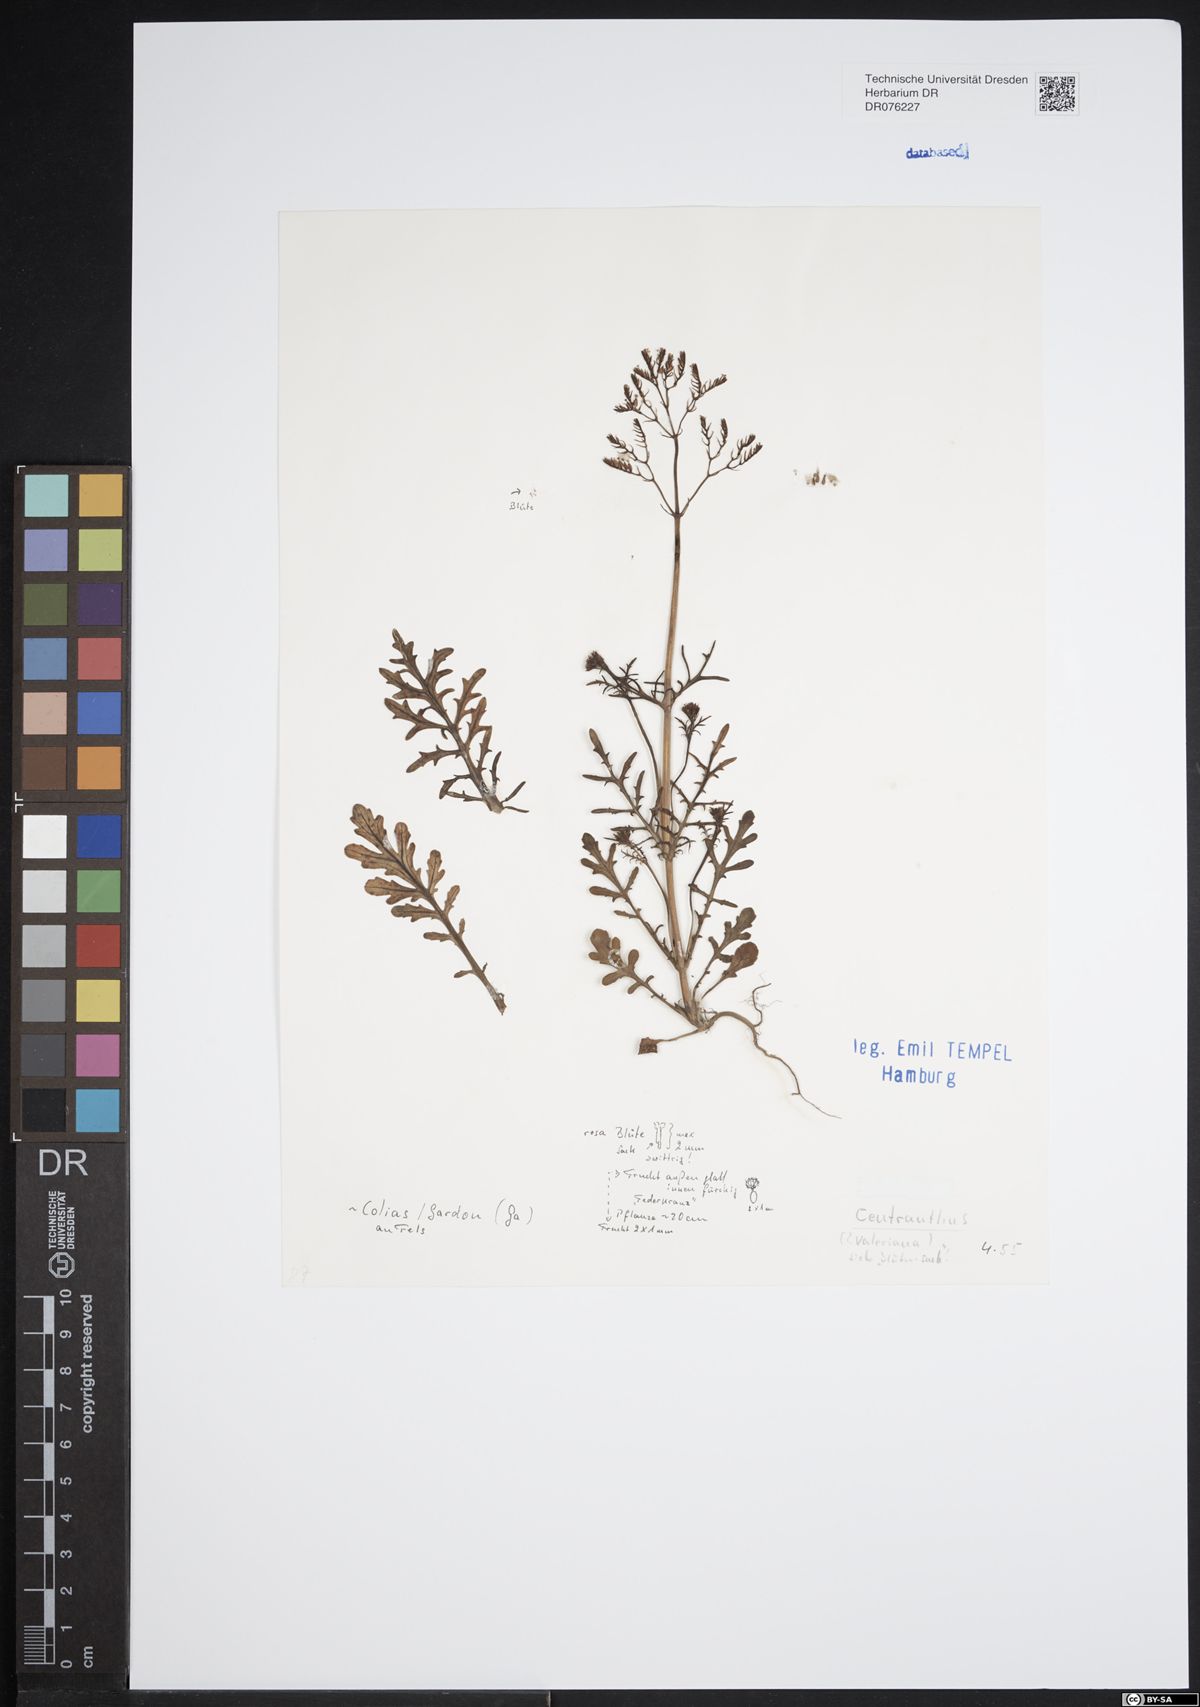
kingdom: Plantae
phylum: Tracheophyta
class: Magnoliopsida
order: Dipsacales
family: Caprifoliaceae
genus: Centranthus
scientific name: Centranthus
